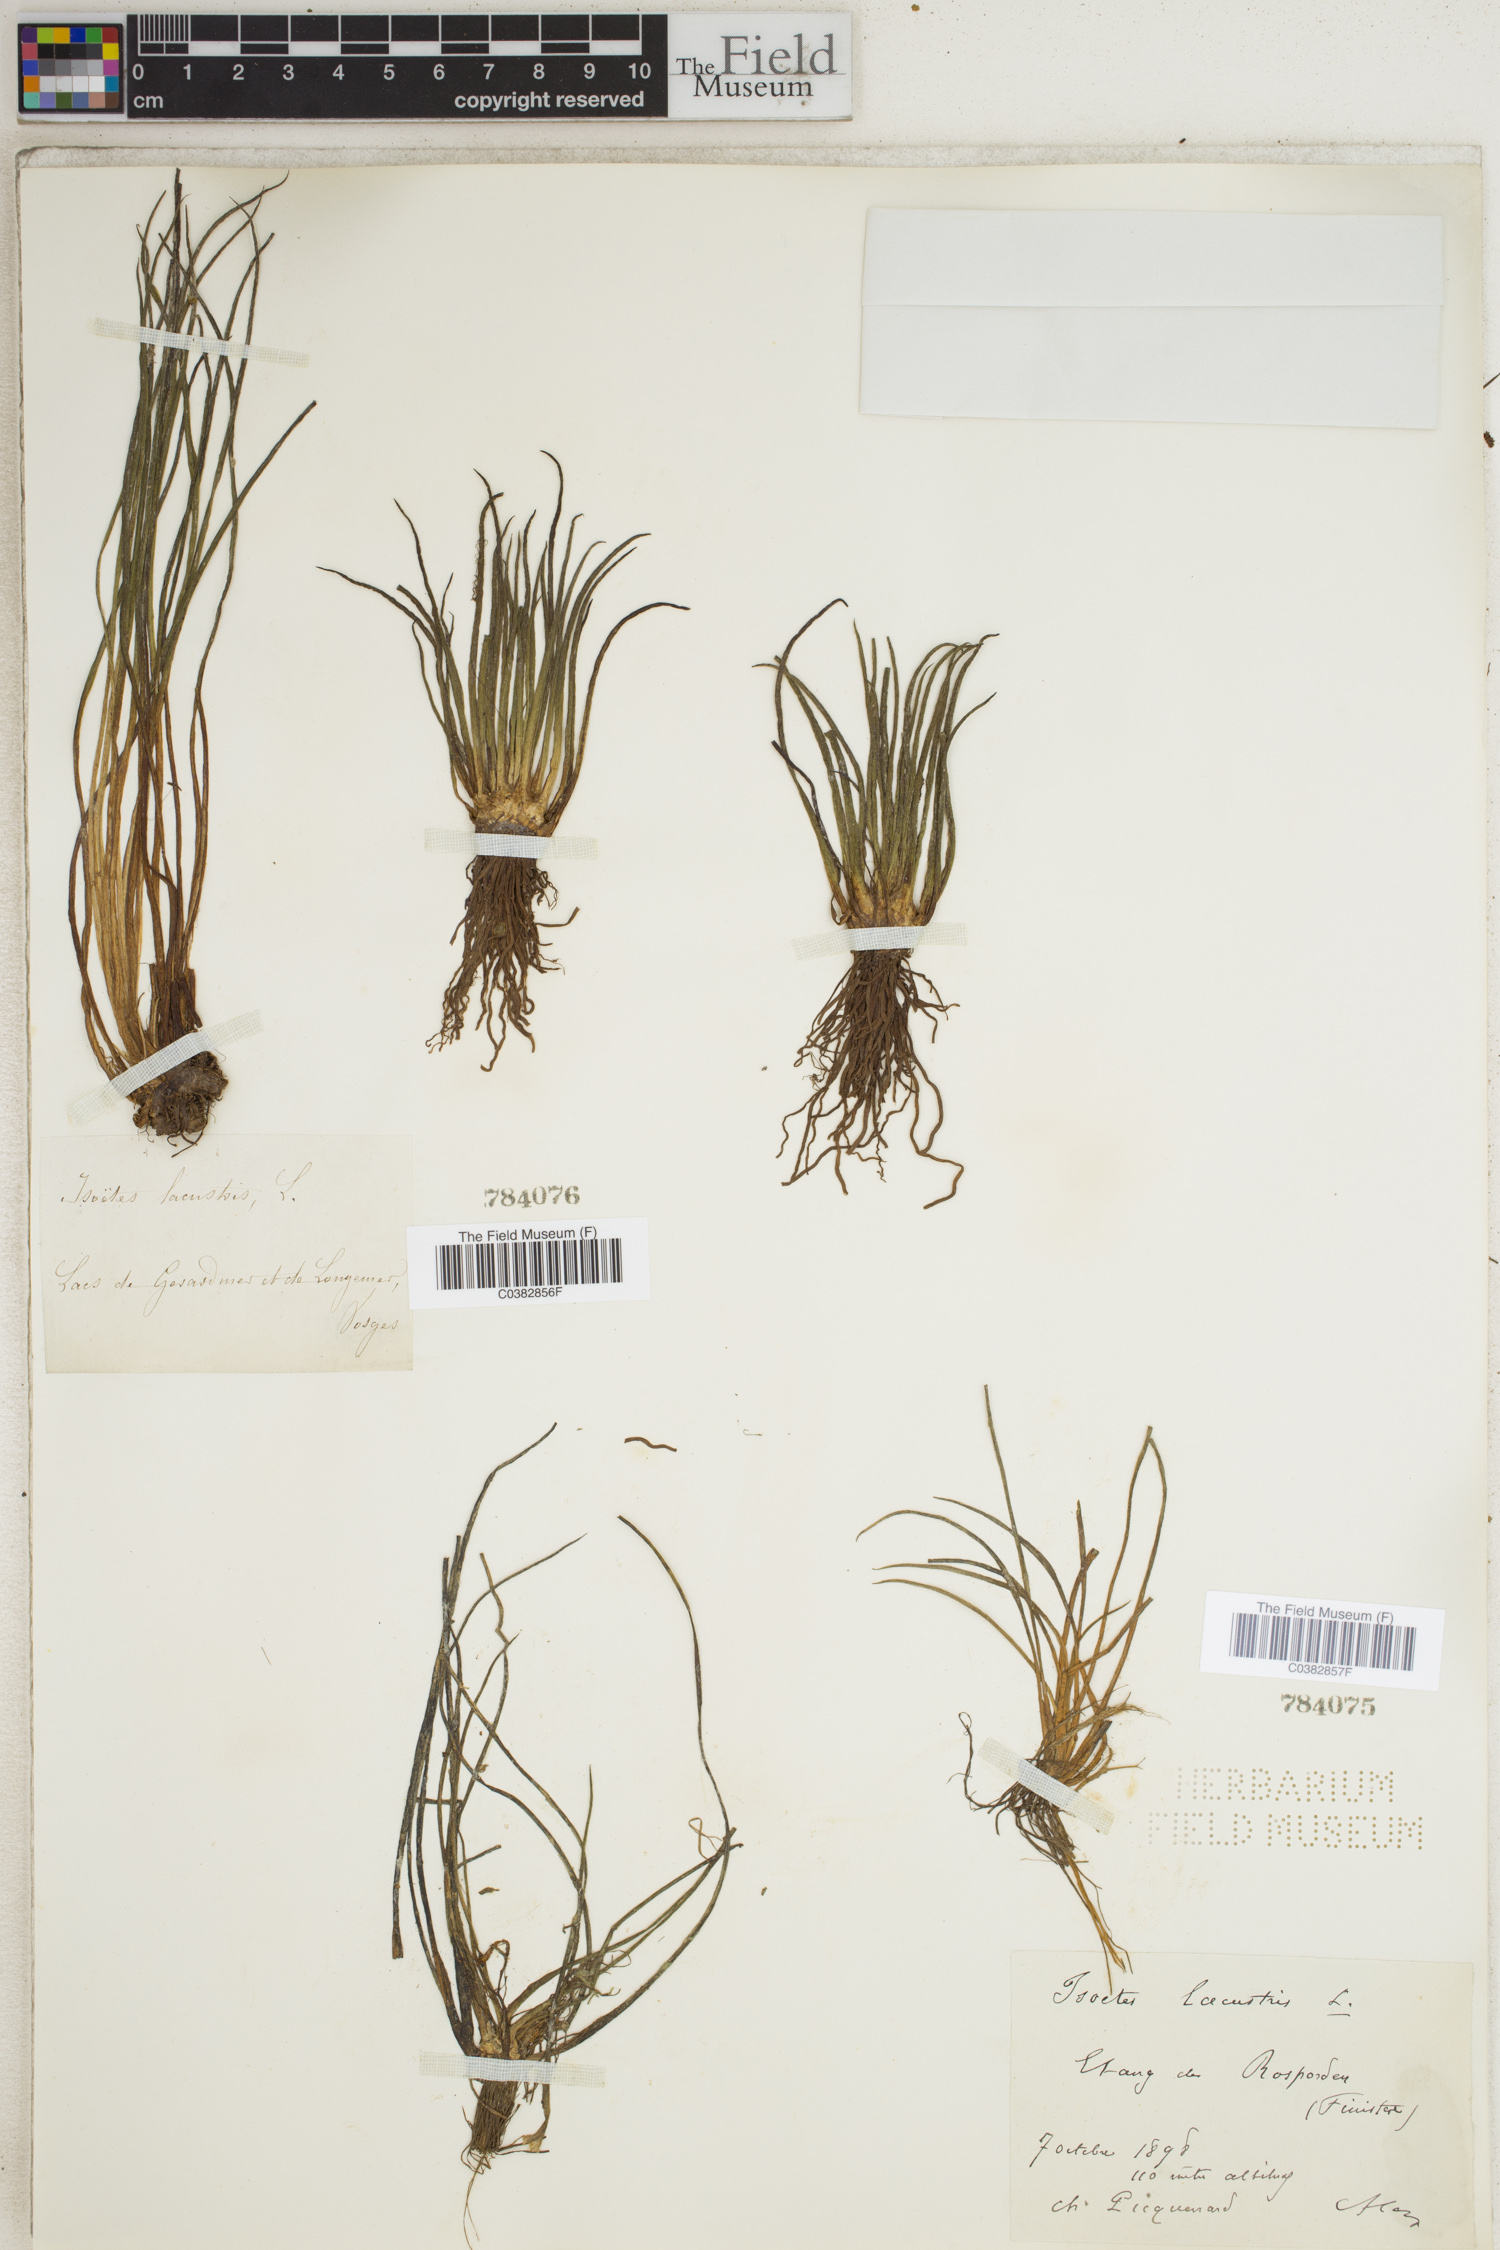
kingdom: Plantae
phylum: Tracheophyta
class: Lycopodiopsida
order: Isoetales
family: Isoetaceae
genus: Isoetes
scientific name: Isoetes lacustris
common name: Common quillwort
